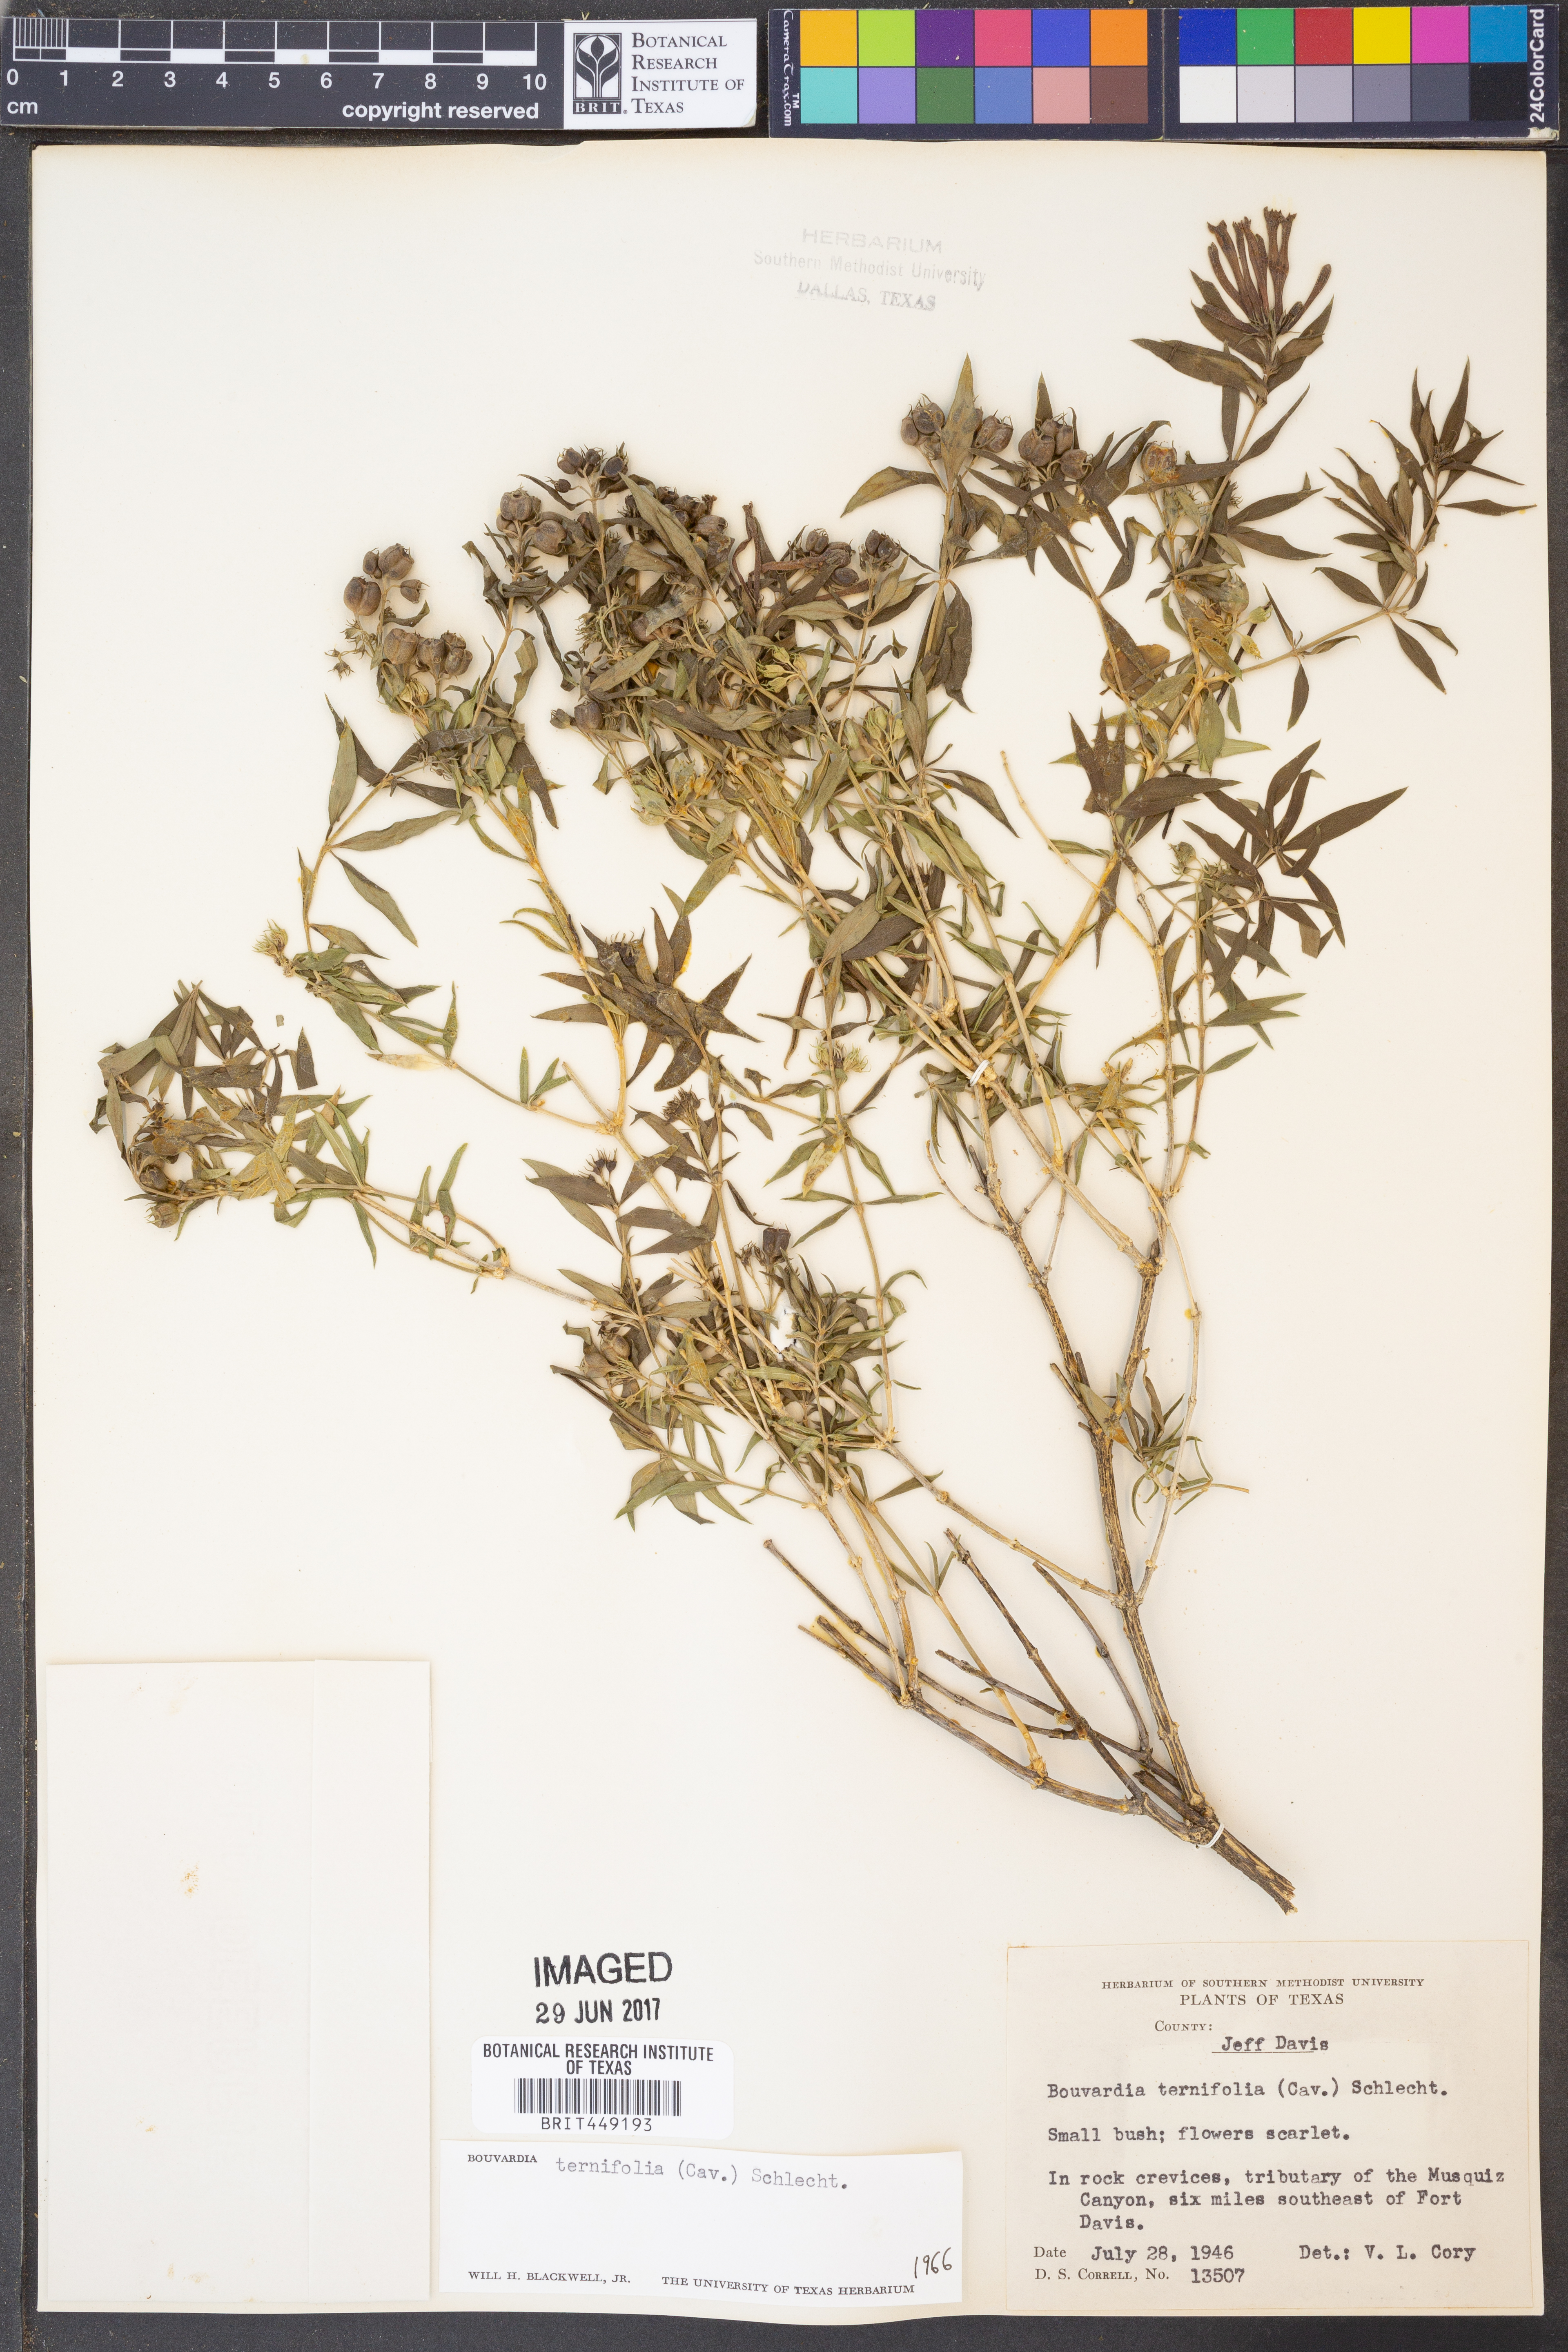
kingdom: Plantae
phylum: Tracheophyta
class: Magnoliopsida
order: Gentianales
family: Rubiaceae
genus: Bouvardia
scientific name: Bouvardia ternifolia
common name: Scarlet bouvardia
